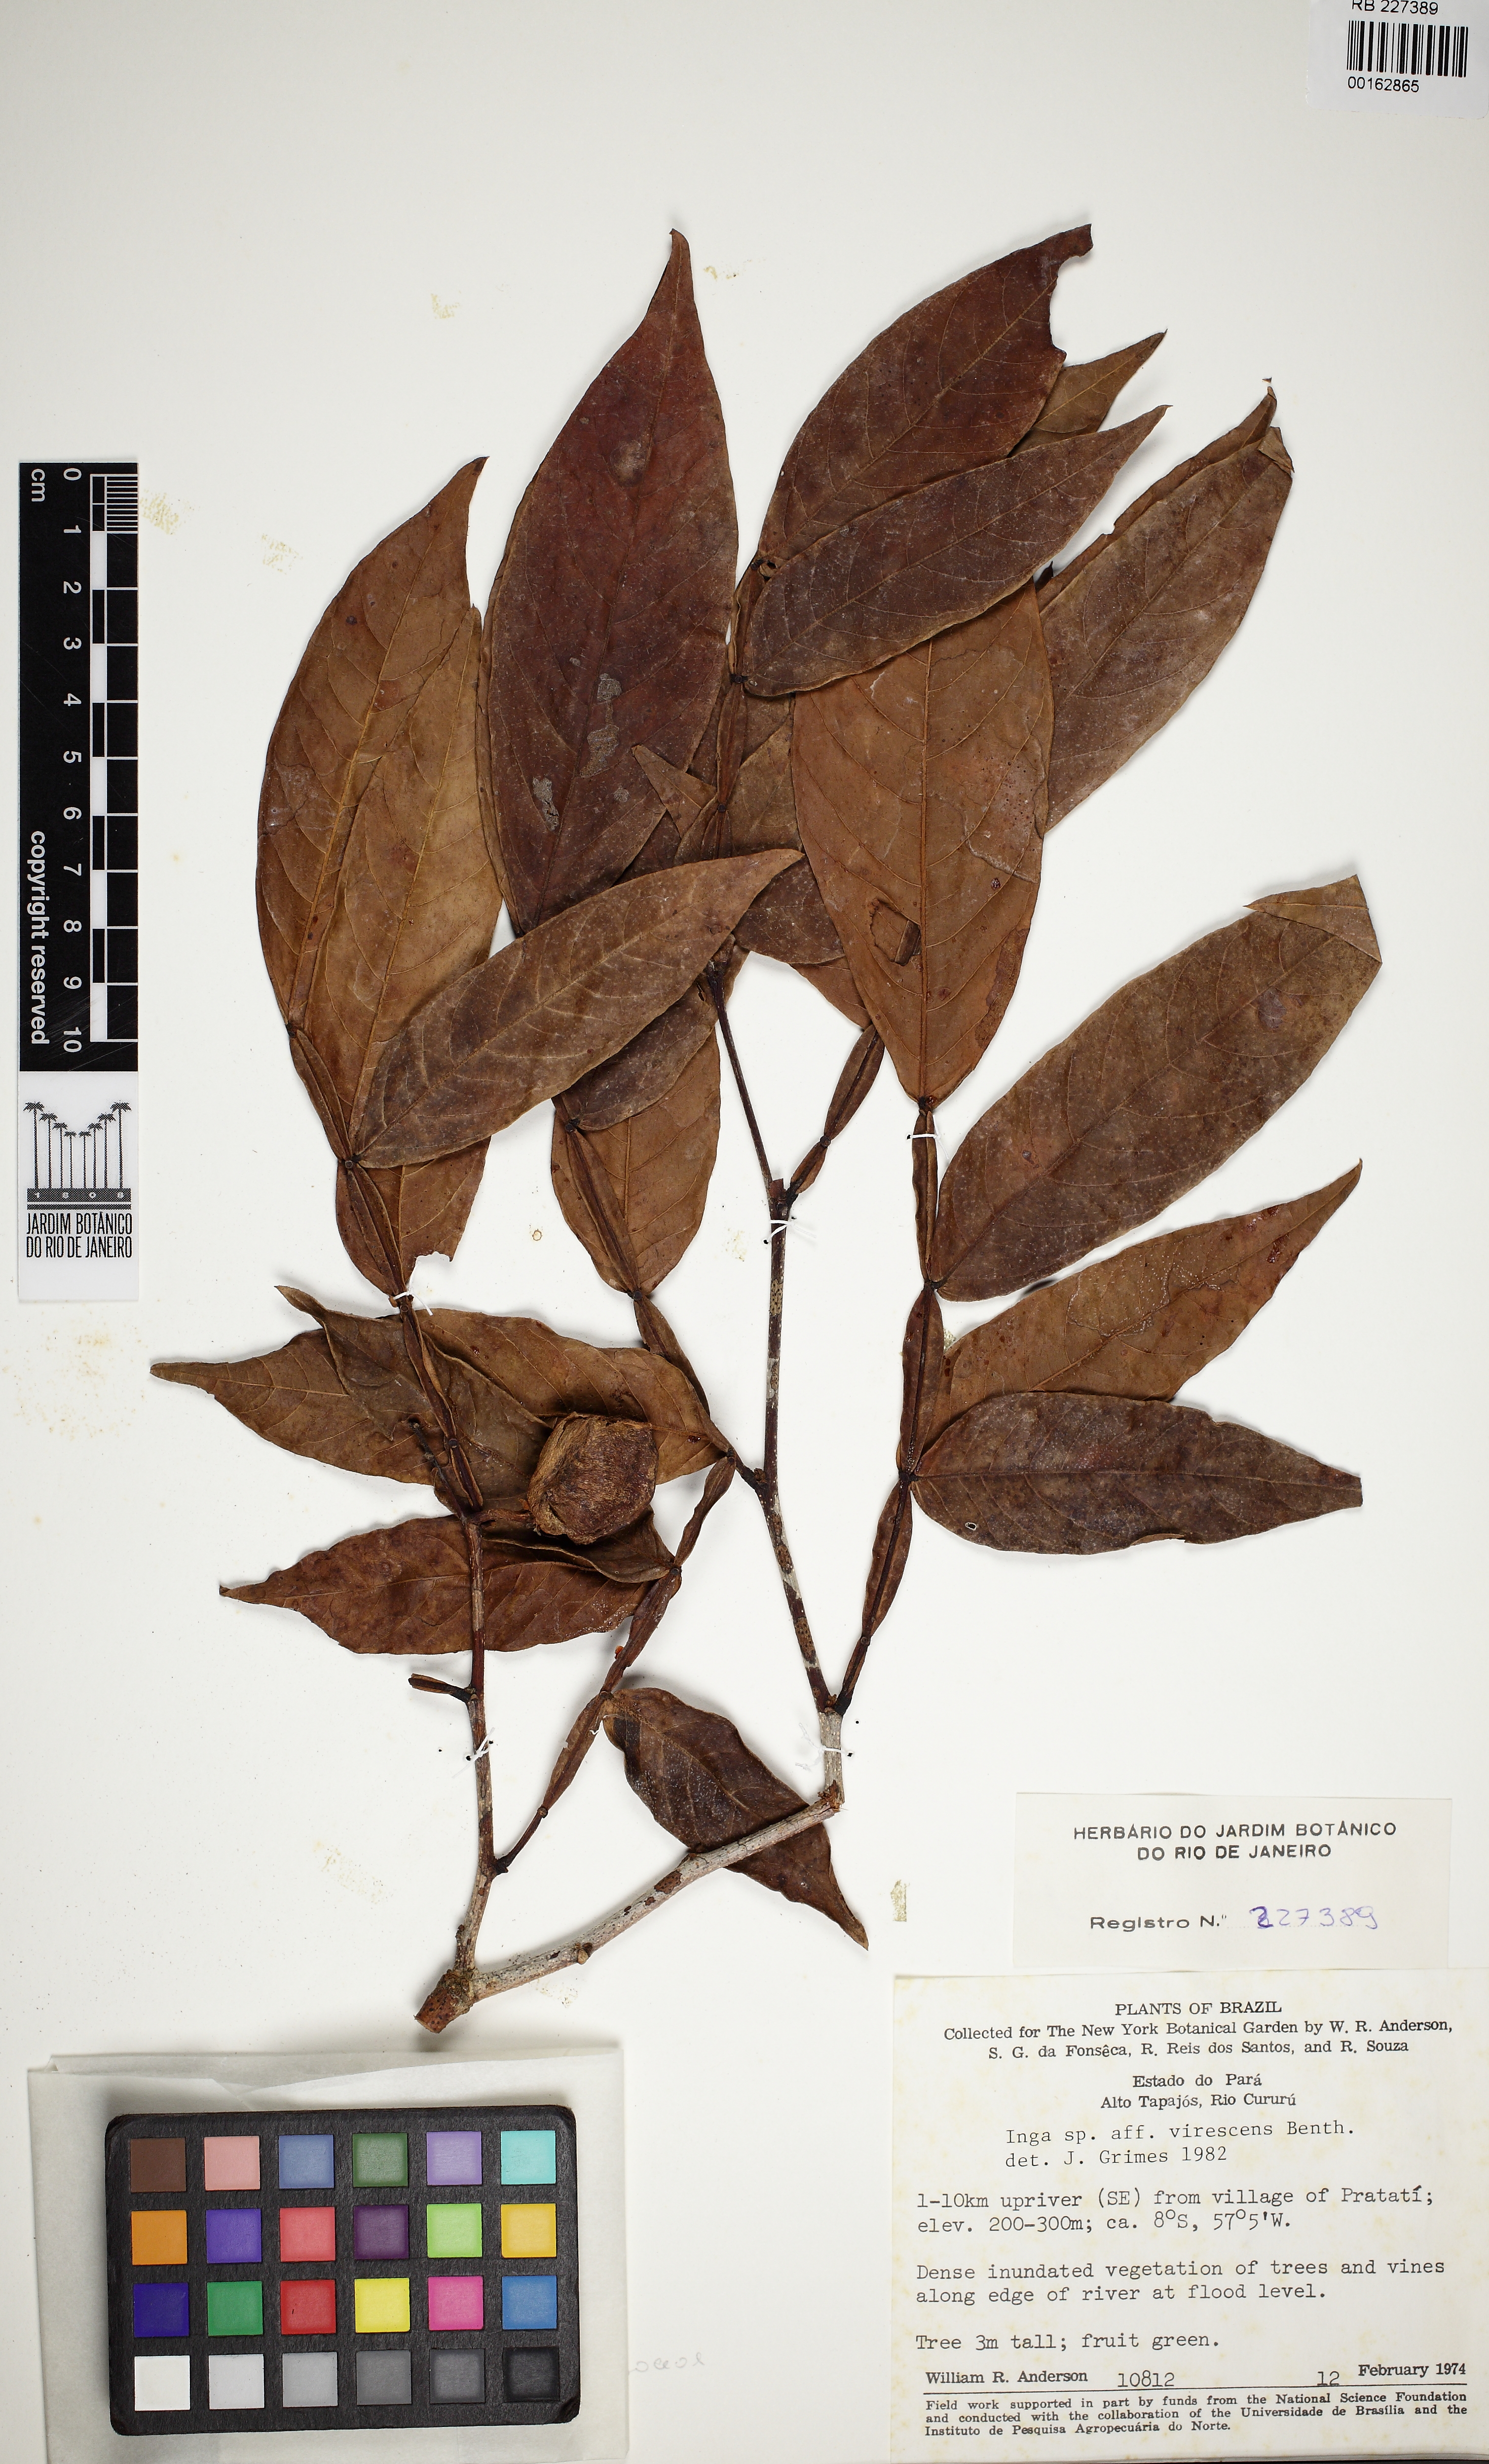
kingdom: Plantae
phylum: Tracheophyta
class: Magnoliopsida
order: Fabales
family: Fabaceae
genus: Inga
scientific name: Inga
